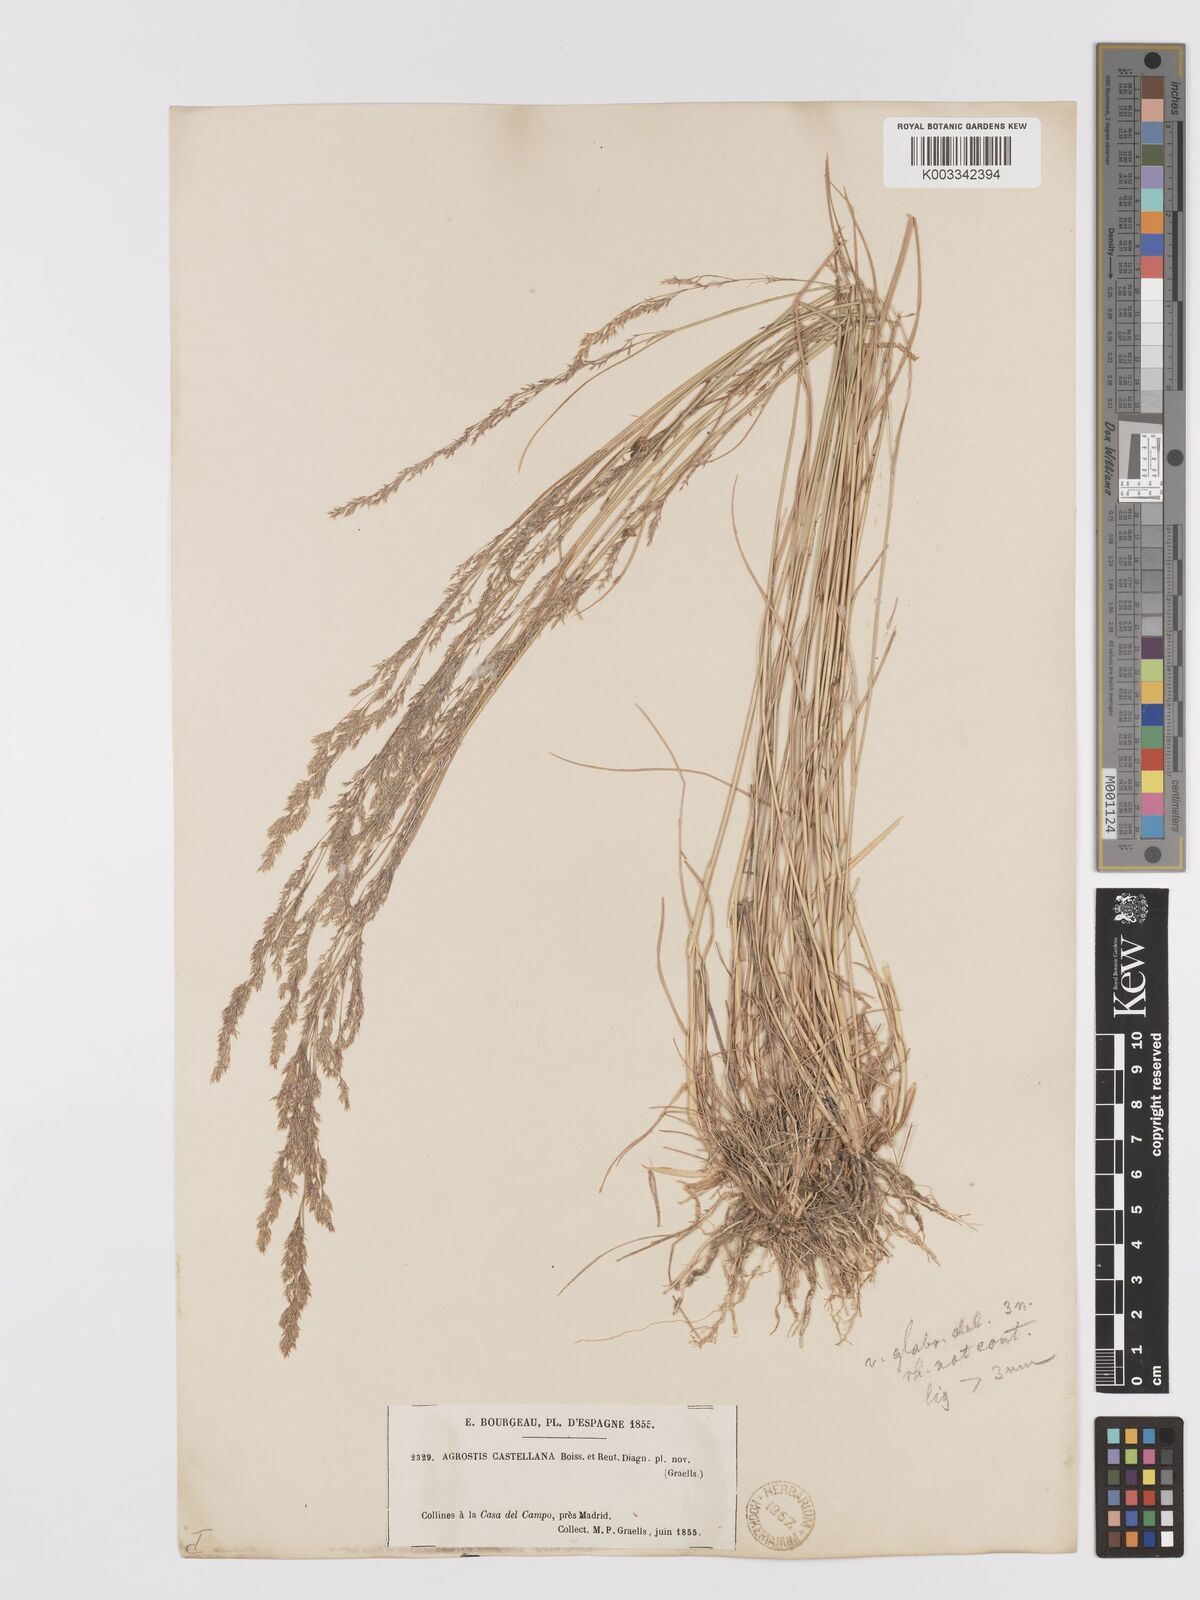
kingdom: Plantae
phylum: Tracheophyta
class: Liliopsida
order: Poales
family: Poaceae
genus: Agrostis
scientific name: Agrostis castellana
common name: Highland bent
